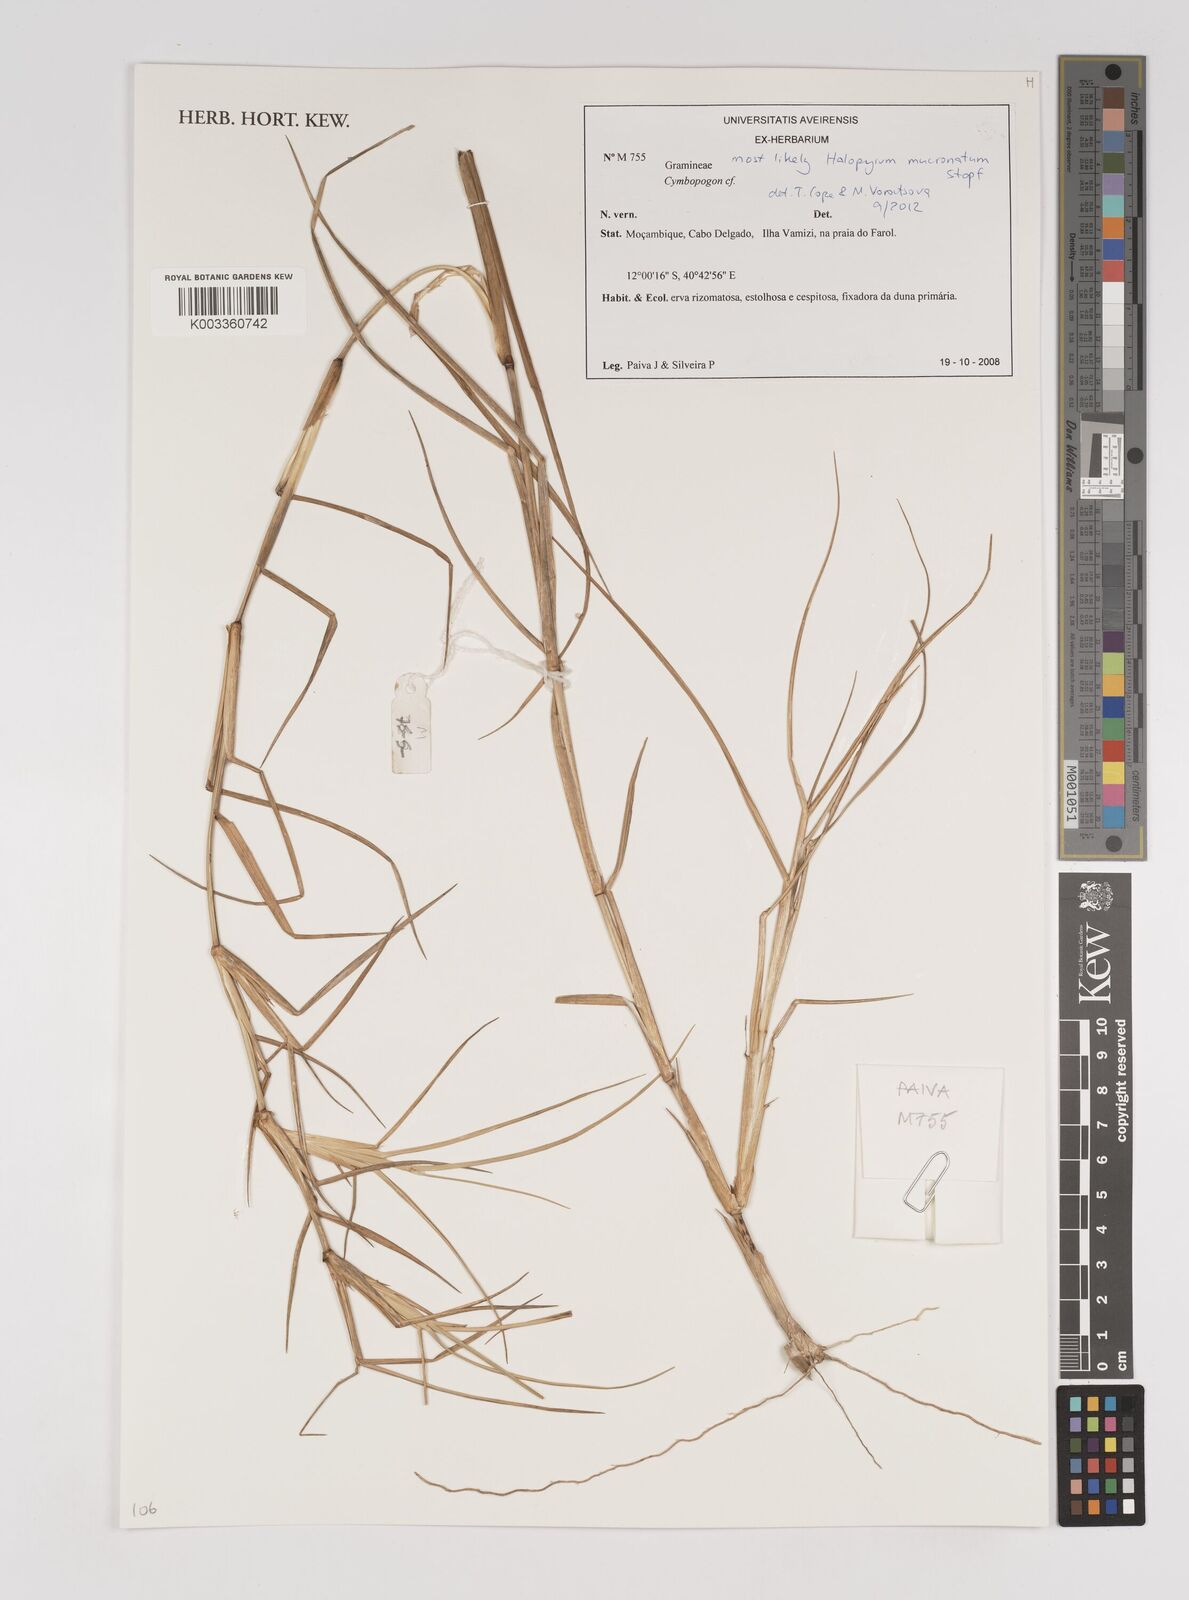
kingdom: Plantae
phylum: Tracheophyta
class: Liliopsida
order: Poales
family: Poaceae
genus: Halopyrum
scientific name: Halopyrum mucronatum
